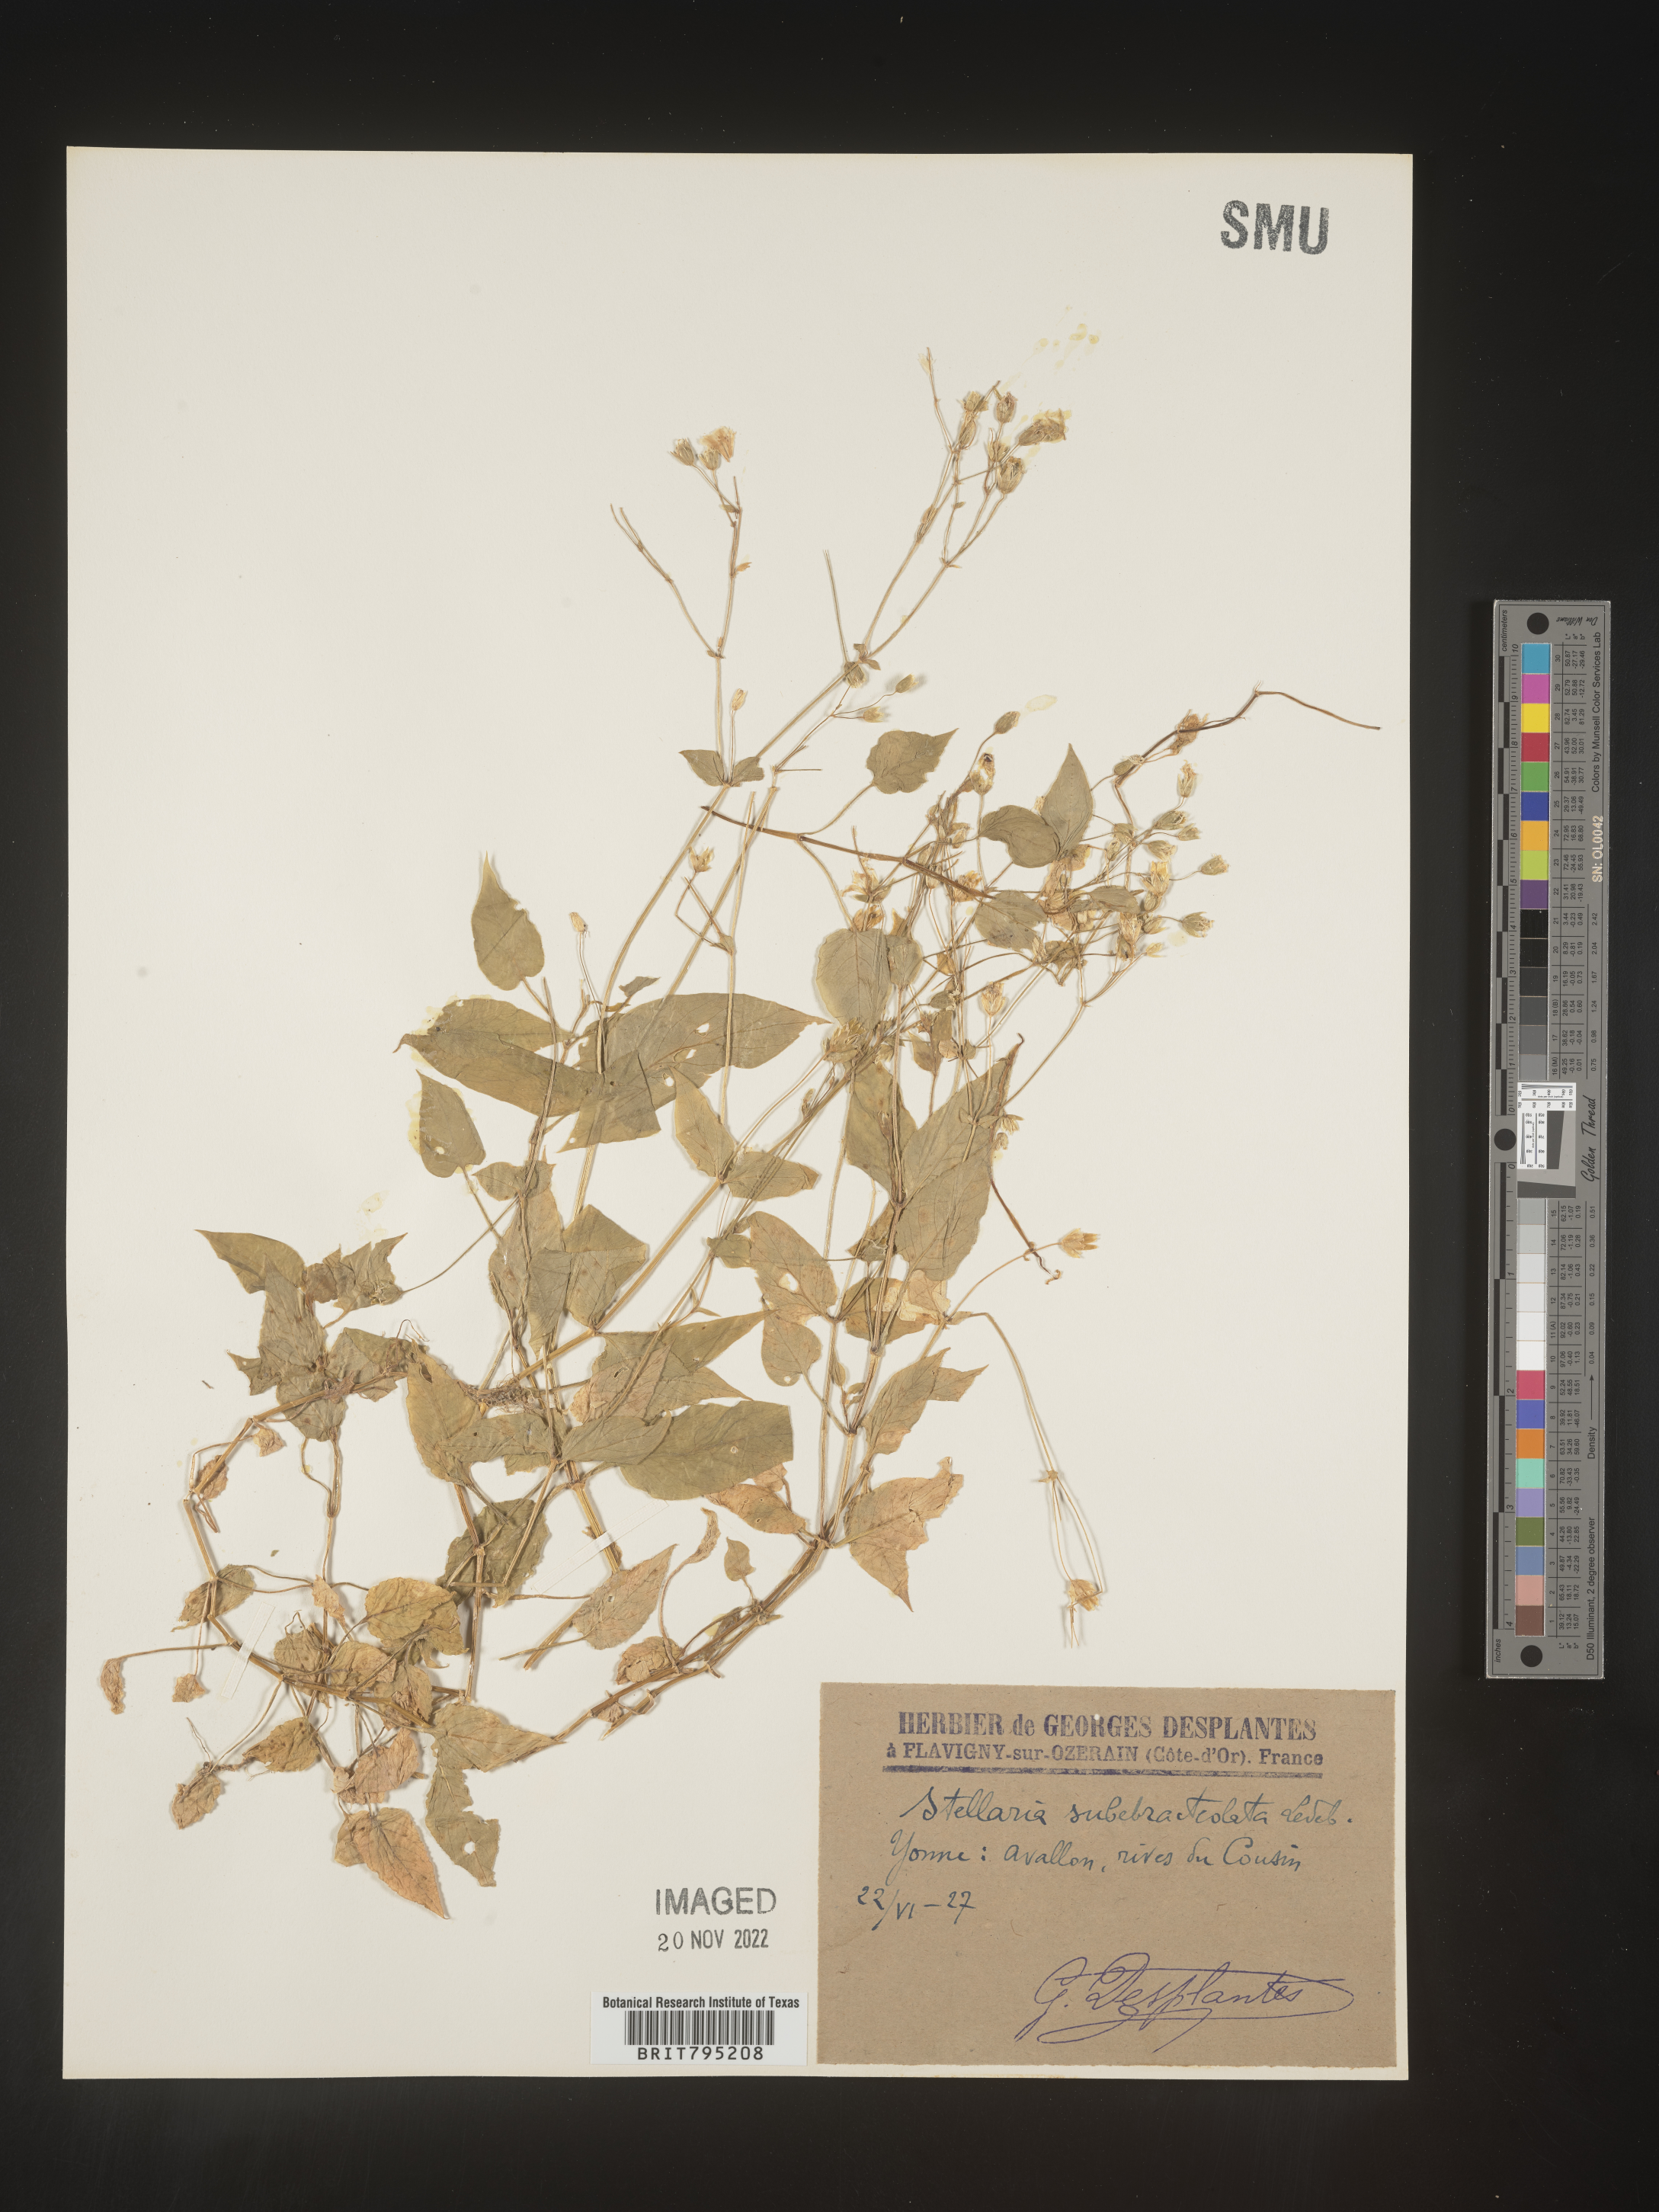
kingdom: Plantae
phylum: Tracheophyta
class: Magnoliopsida
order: Caryophyllales
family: Caryophyllaceae
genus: Stellaria
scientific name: Stellaria
